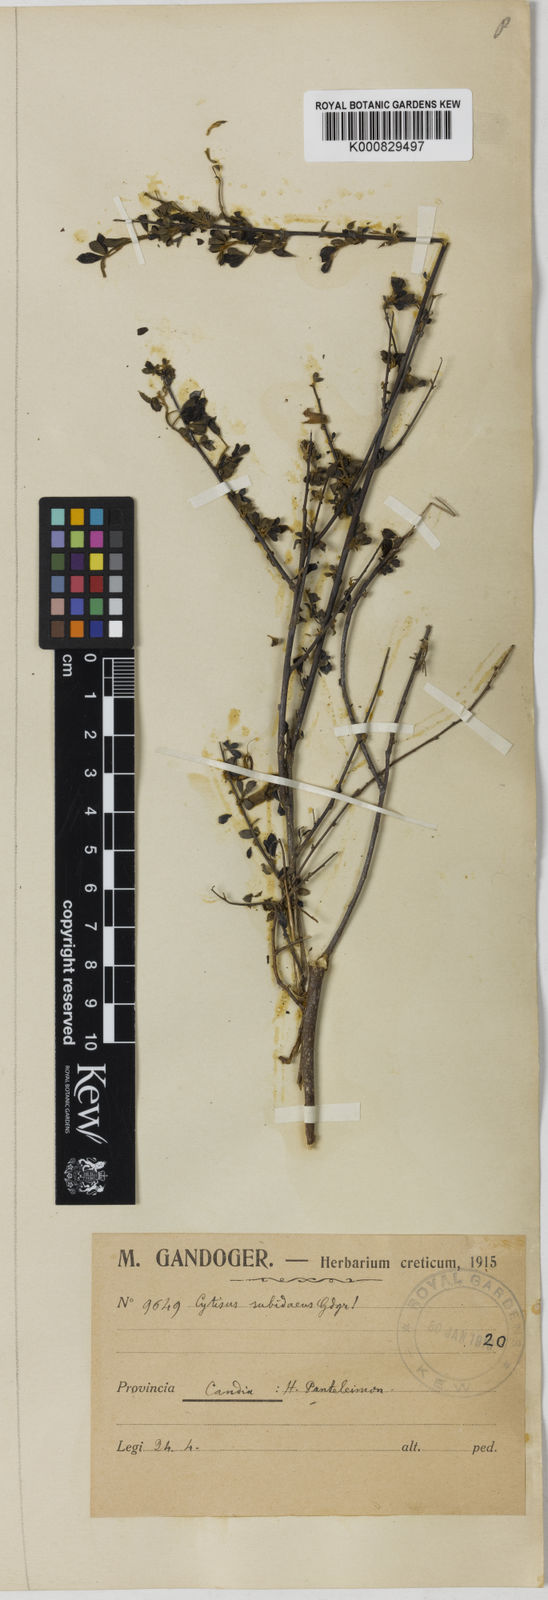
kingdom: Plantae
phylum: Tracheophyta
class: Magnoliopsida
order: Fabales
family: Fabaceae
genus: Chamaecytisus
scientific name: Chamaecytisus spinescens
